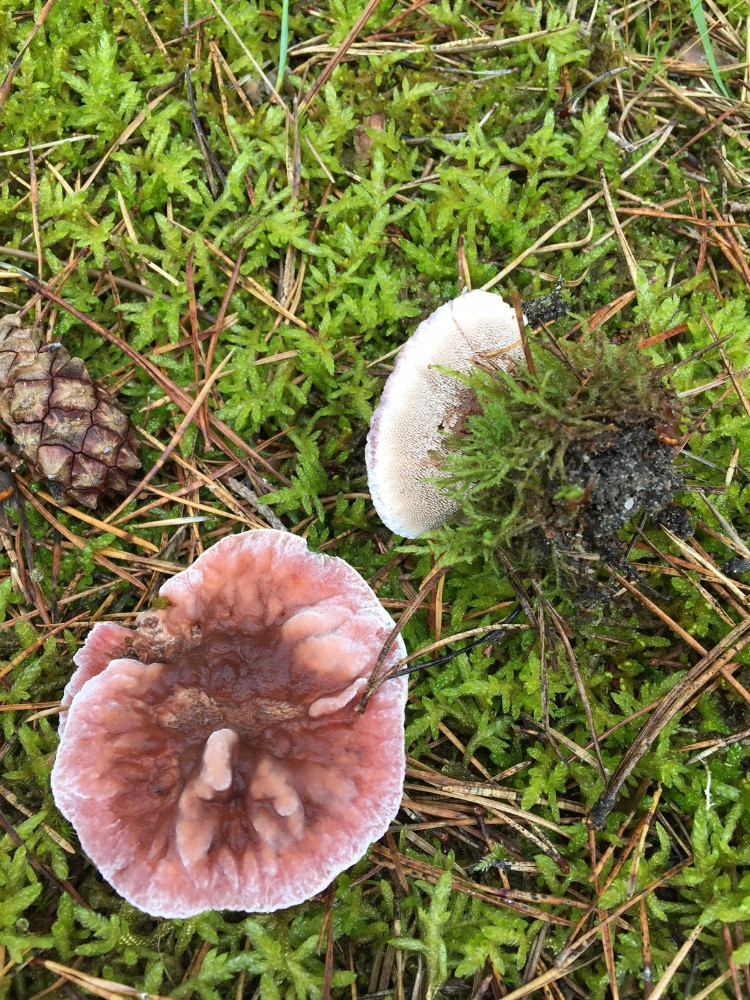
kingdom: Fungi
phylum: Basidiomycota
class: Agaricomycetes
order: Thelephorales
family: Bankeraceae
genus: Hydnellum
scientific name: Hydnellum peckii
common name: bitter korkpigsvamp
